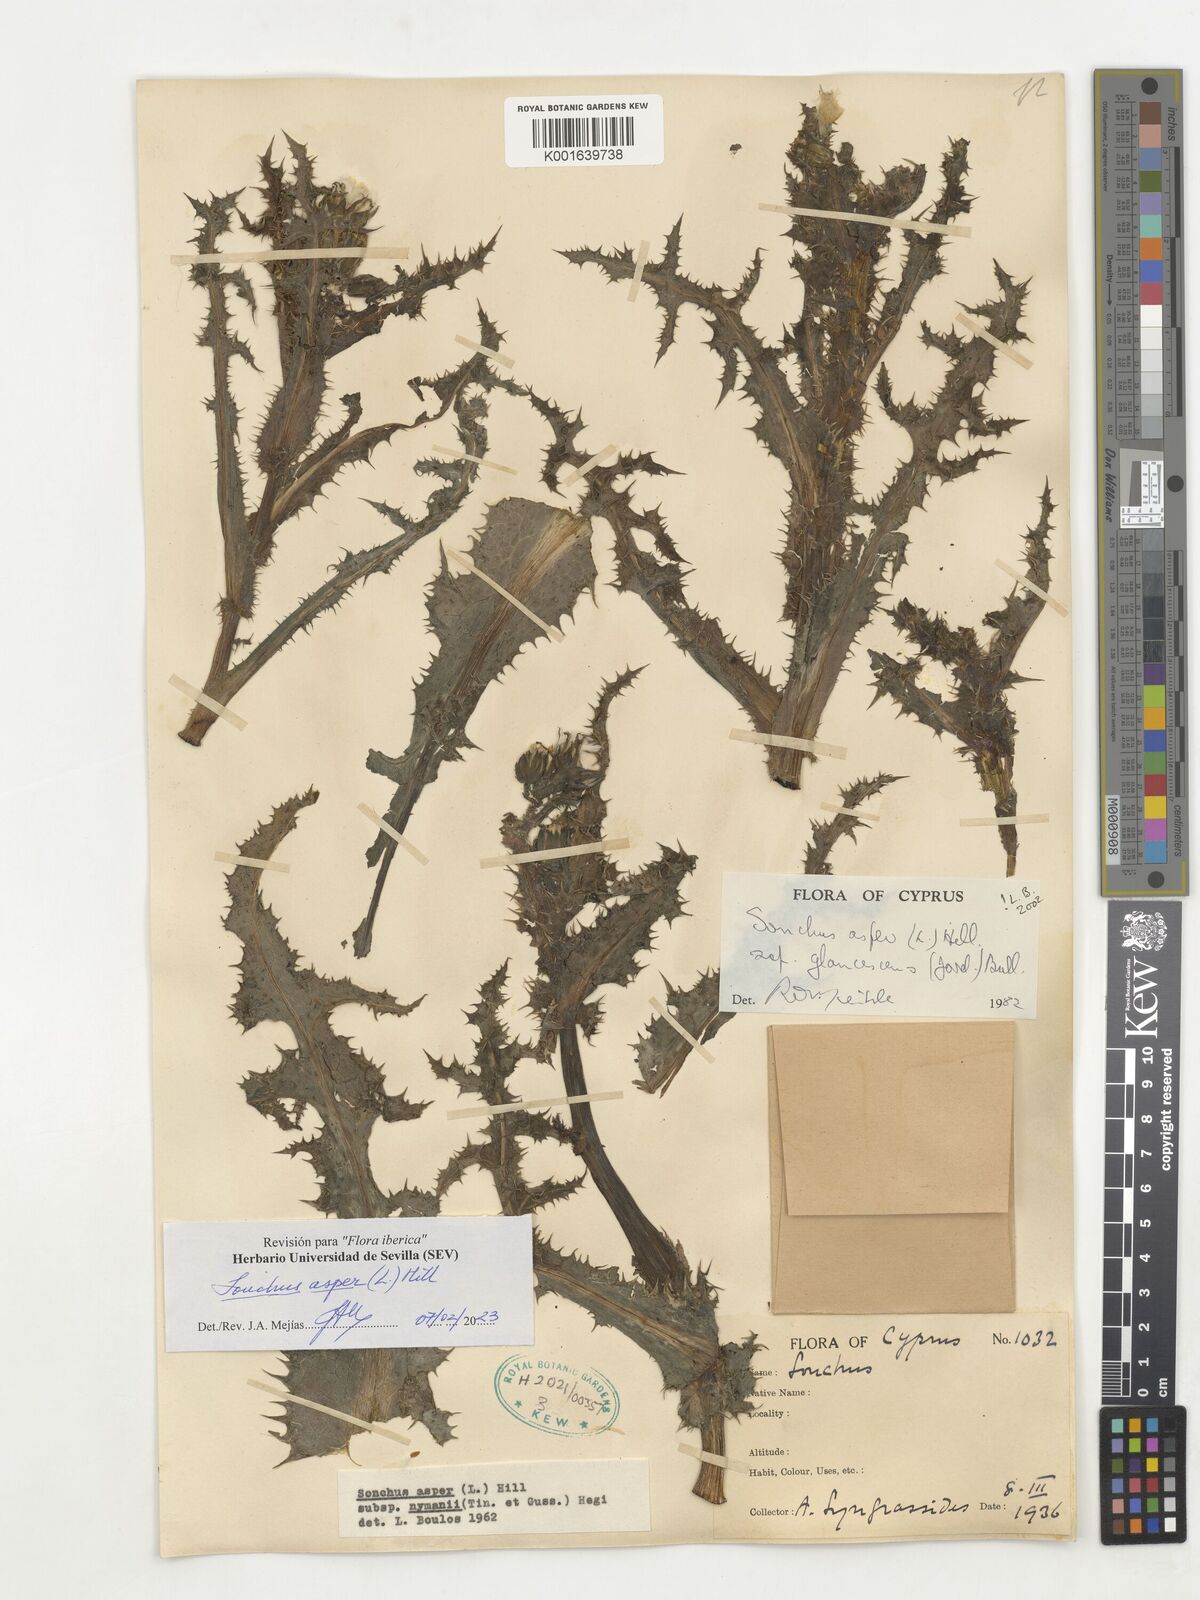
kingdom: Plantae
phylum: Tracheophyta
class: Magnoliopsida
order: Asterales
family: Asteraceae
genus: Sonchus
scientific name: Sonchus asper
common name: Prickly sow-thistle
